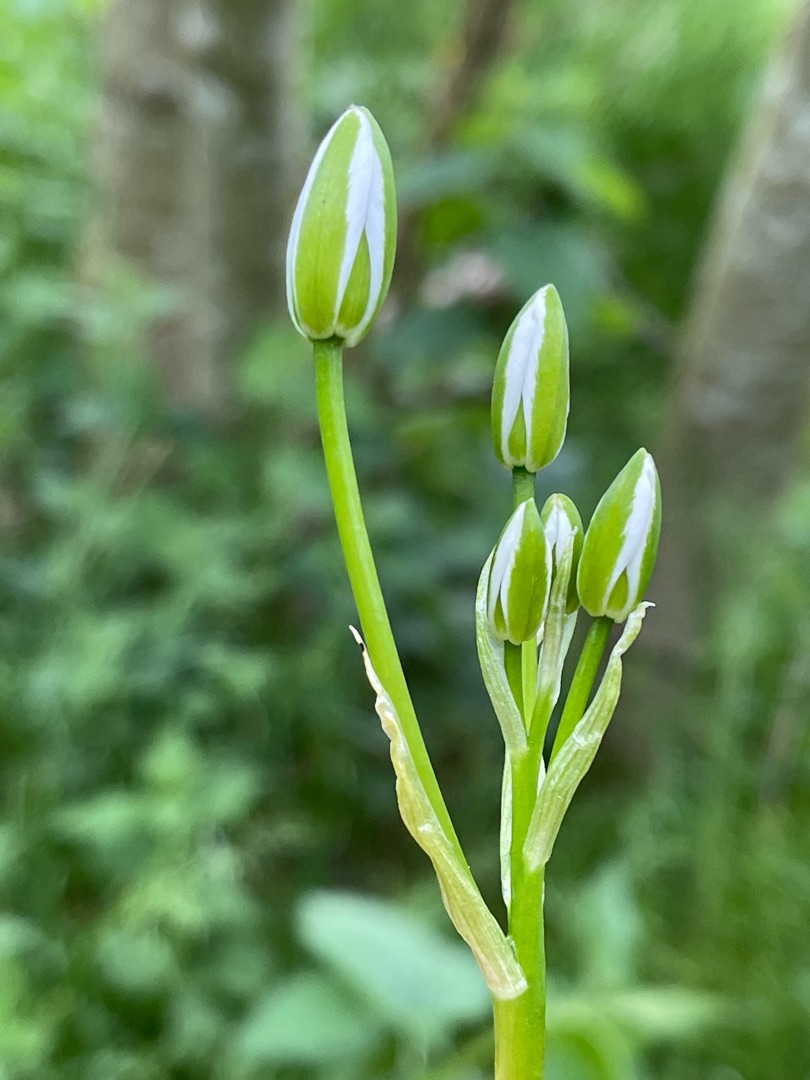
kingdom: Plantae
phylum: Tracheophyta
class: Liliopsida
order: Asparagales
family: Asparagaceae
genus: Ornithogalum
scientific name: Ornithogalum
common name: Fuglemælkslægten
